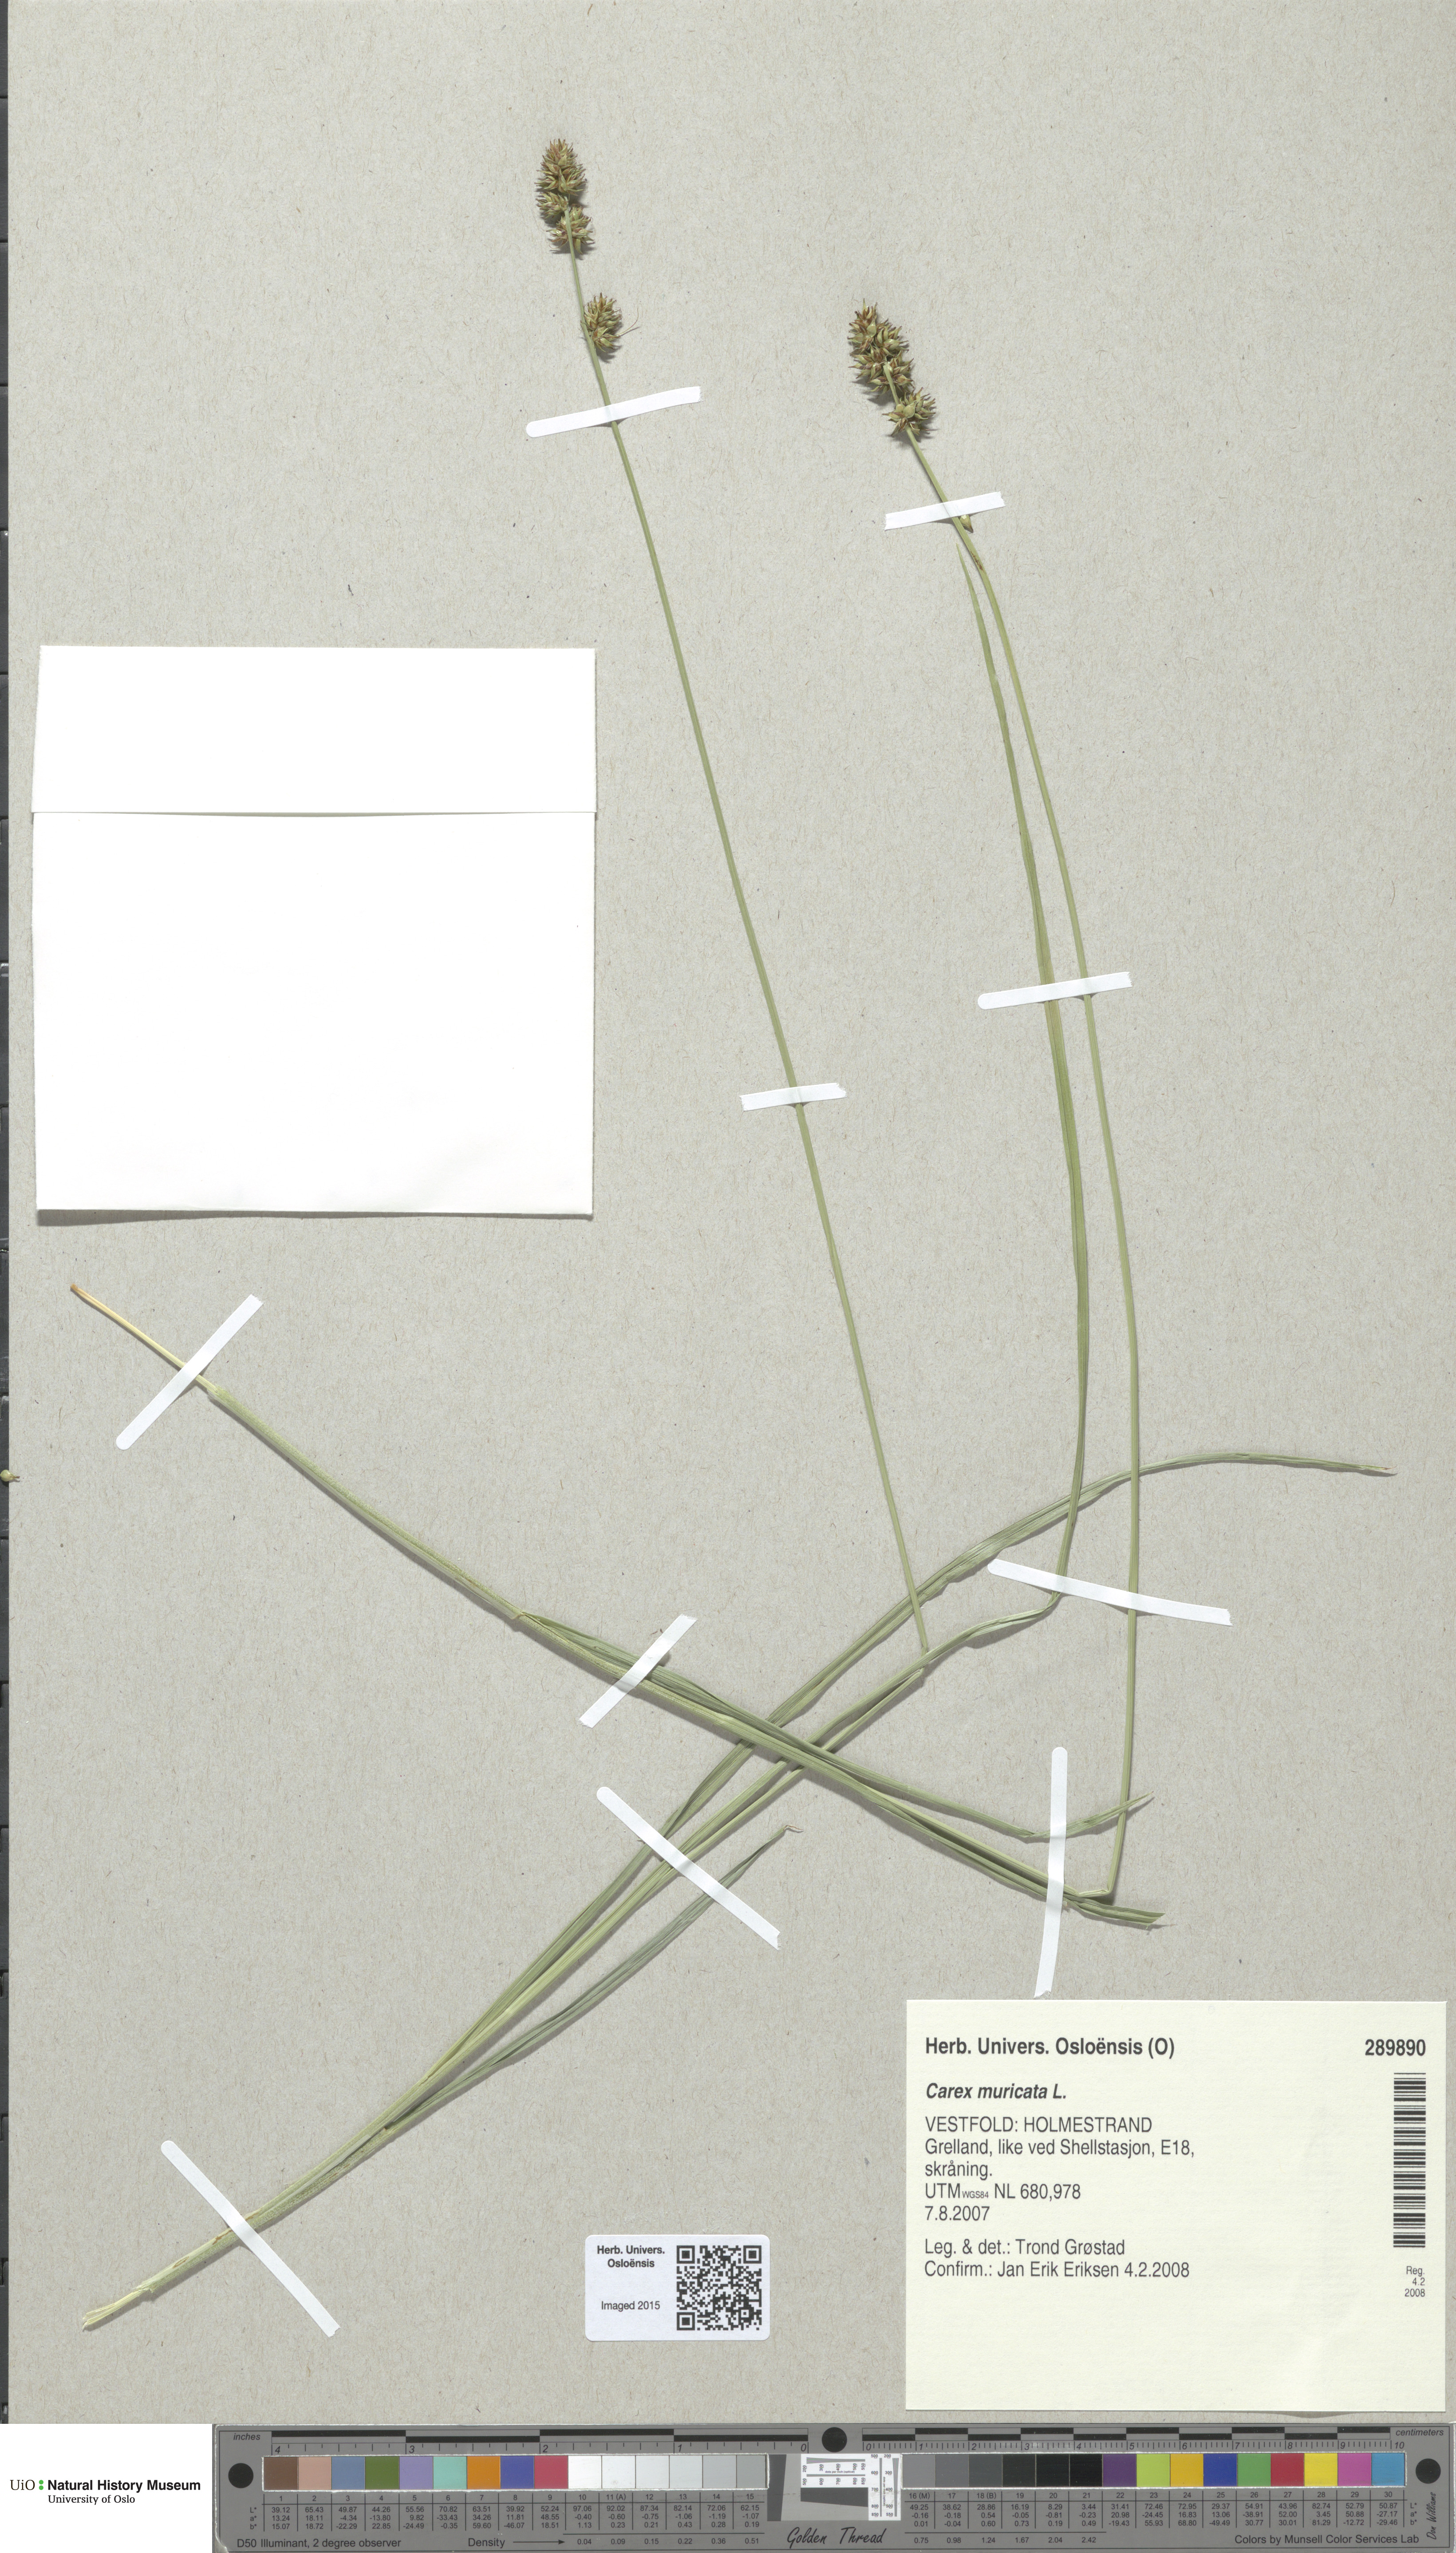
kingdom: Plantae
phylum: Tracheophyta
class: Liliopsida
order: Poales
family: Cyperaceae
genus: Carex
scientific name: Carex muricata
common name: Rough sedge
